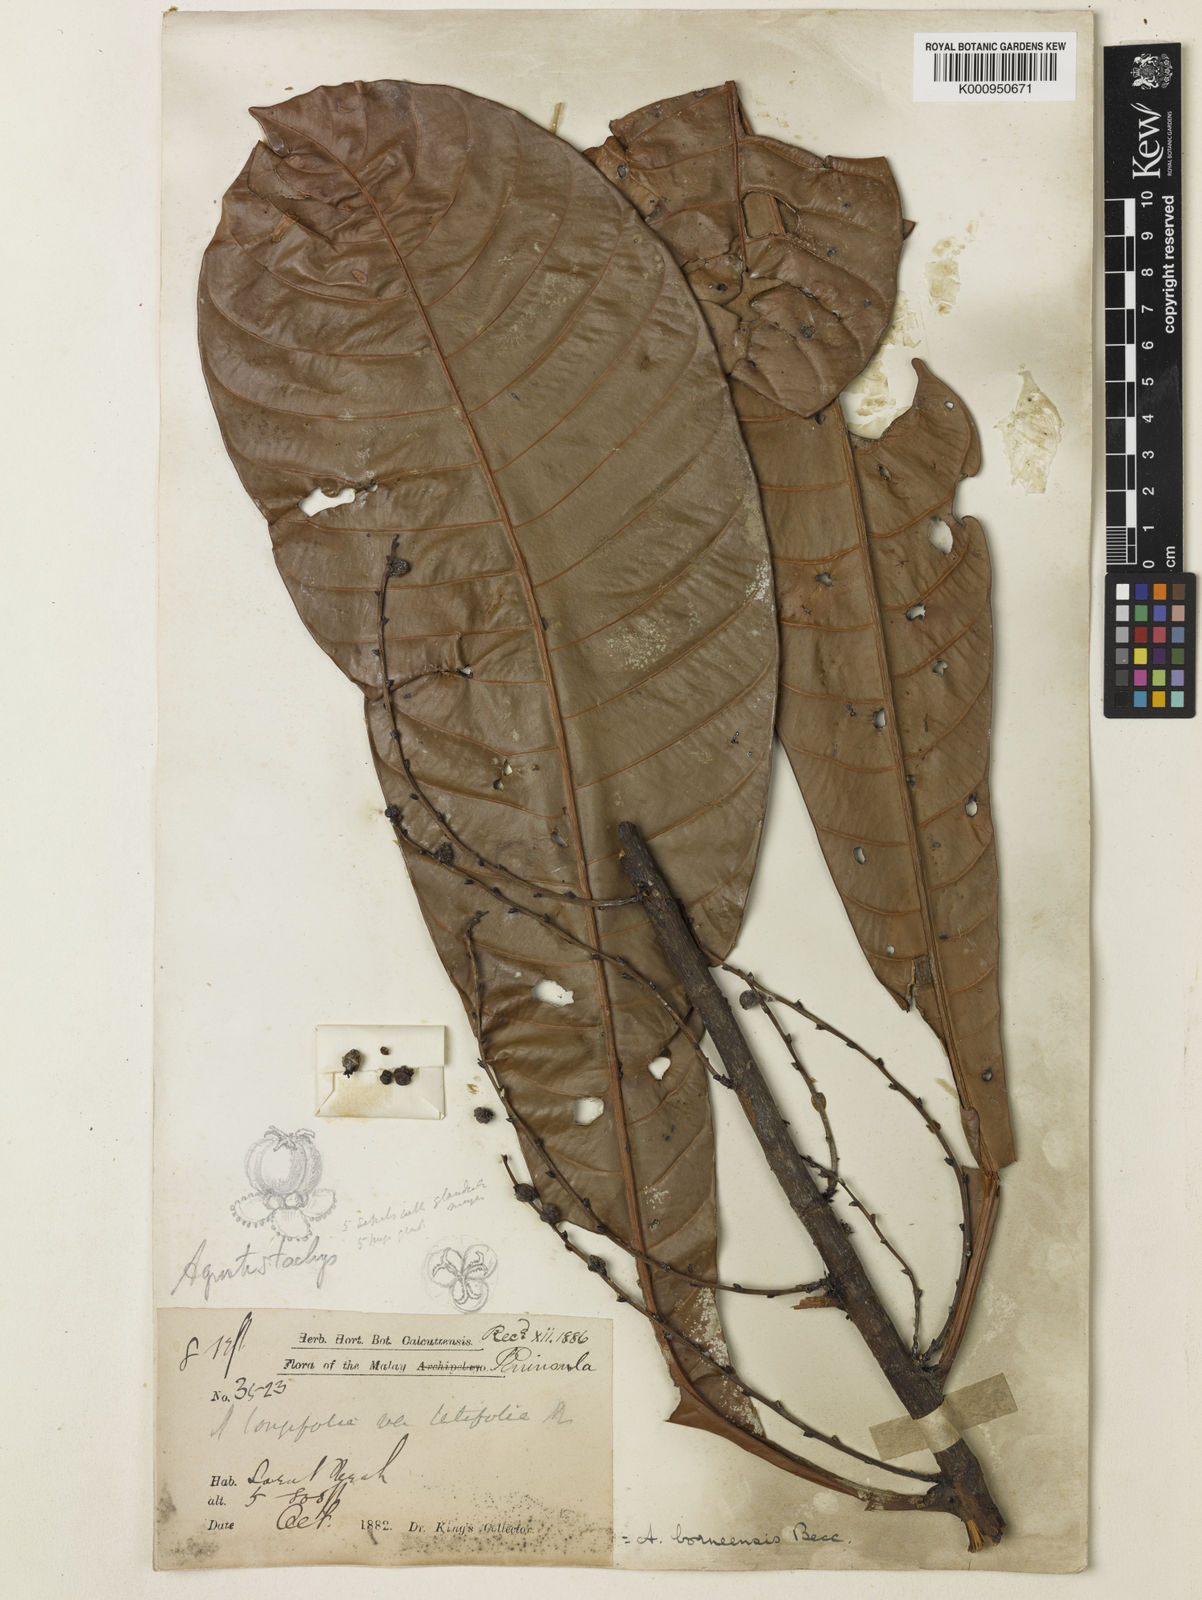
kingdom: Plantae
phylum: Tracheophyta
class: Magnoliopsida
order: Malpighiales
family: Euphorbiaceae
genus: Agrostistachys
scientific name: Agrostistachys borneensis
